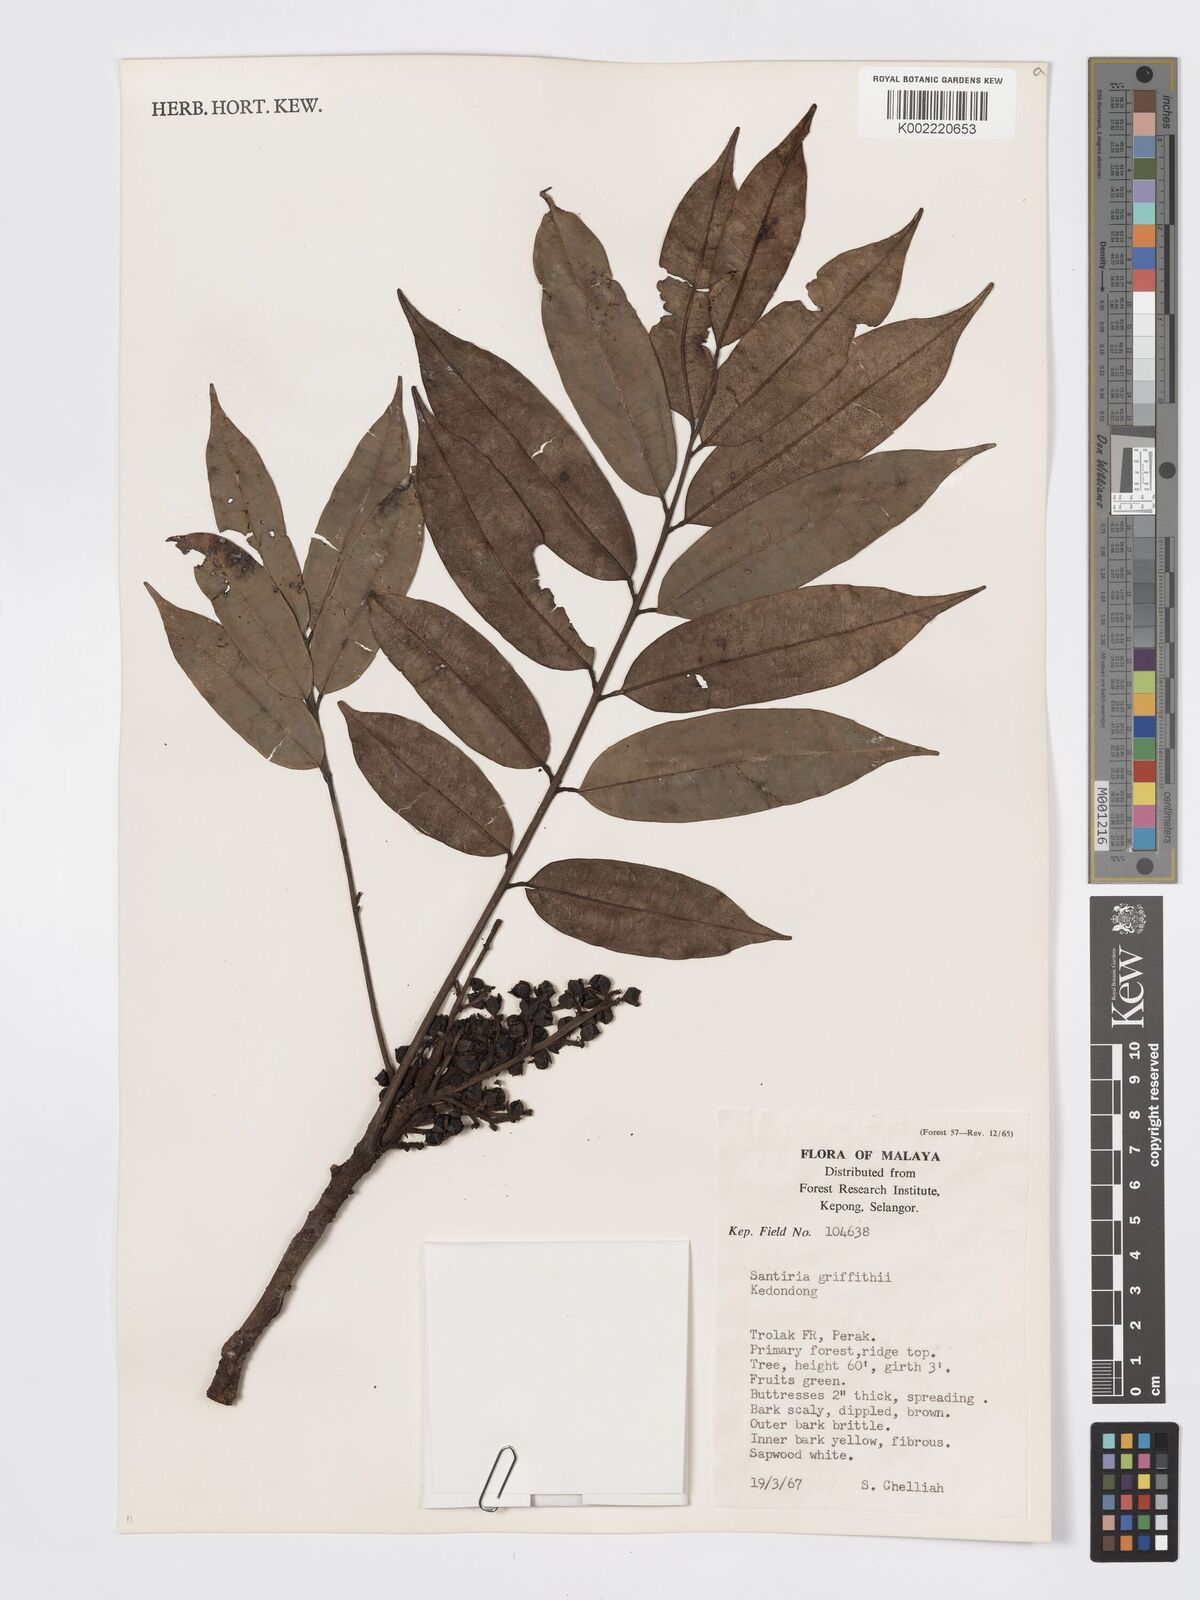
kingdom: Plantae
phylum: Tracheophyta
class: Magnoliopsida
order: Sapindales
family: Burseraceae
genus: Santiria
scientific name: Santiria griffithii
